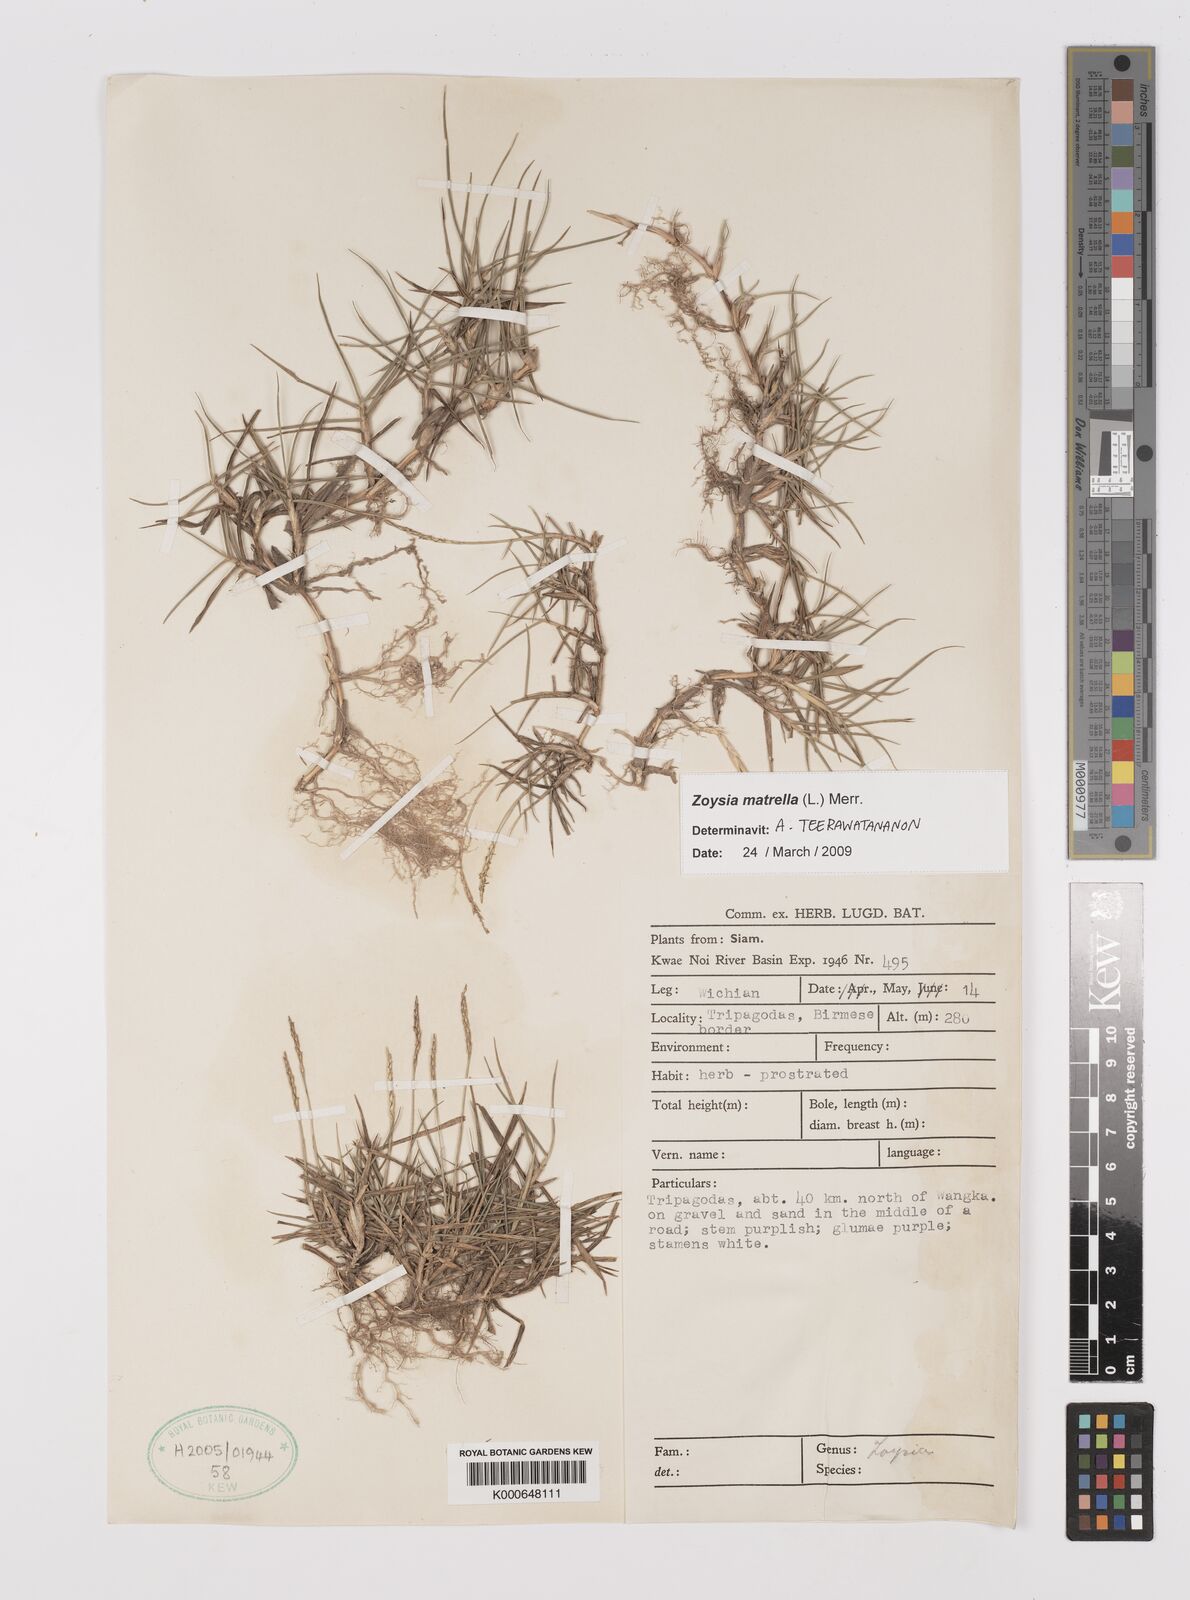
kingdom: Plantae
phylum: Tracheophyta
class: Liliopsida
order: Poales
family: Poaceae
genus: Zoysia
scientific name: Zoysia matrella
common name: Manila grass
